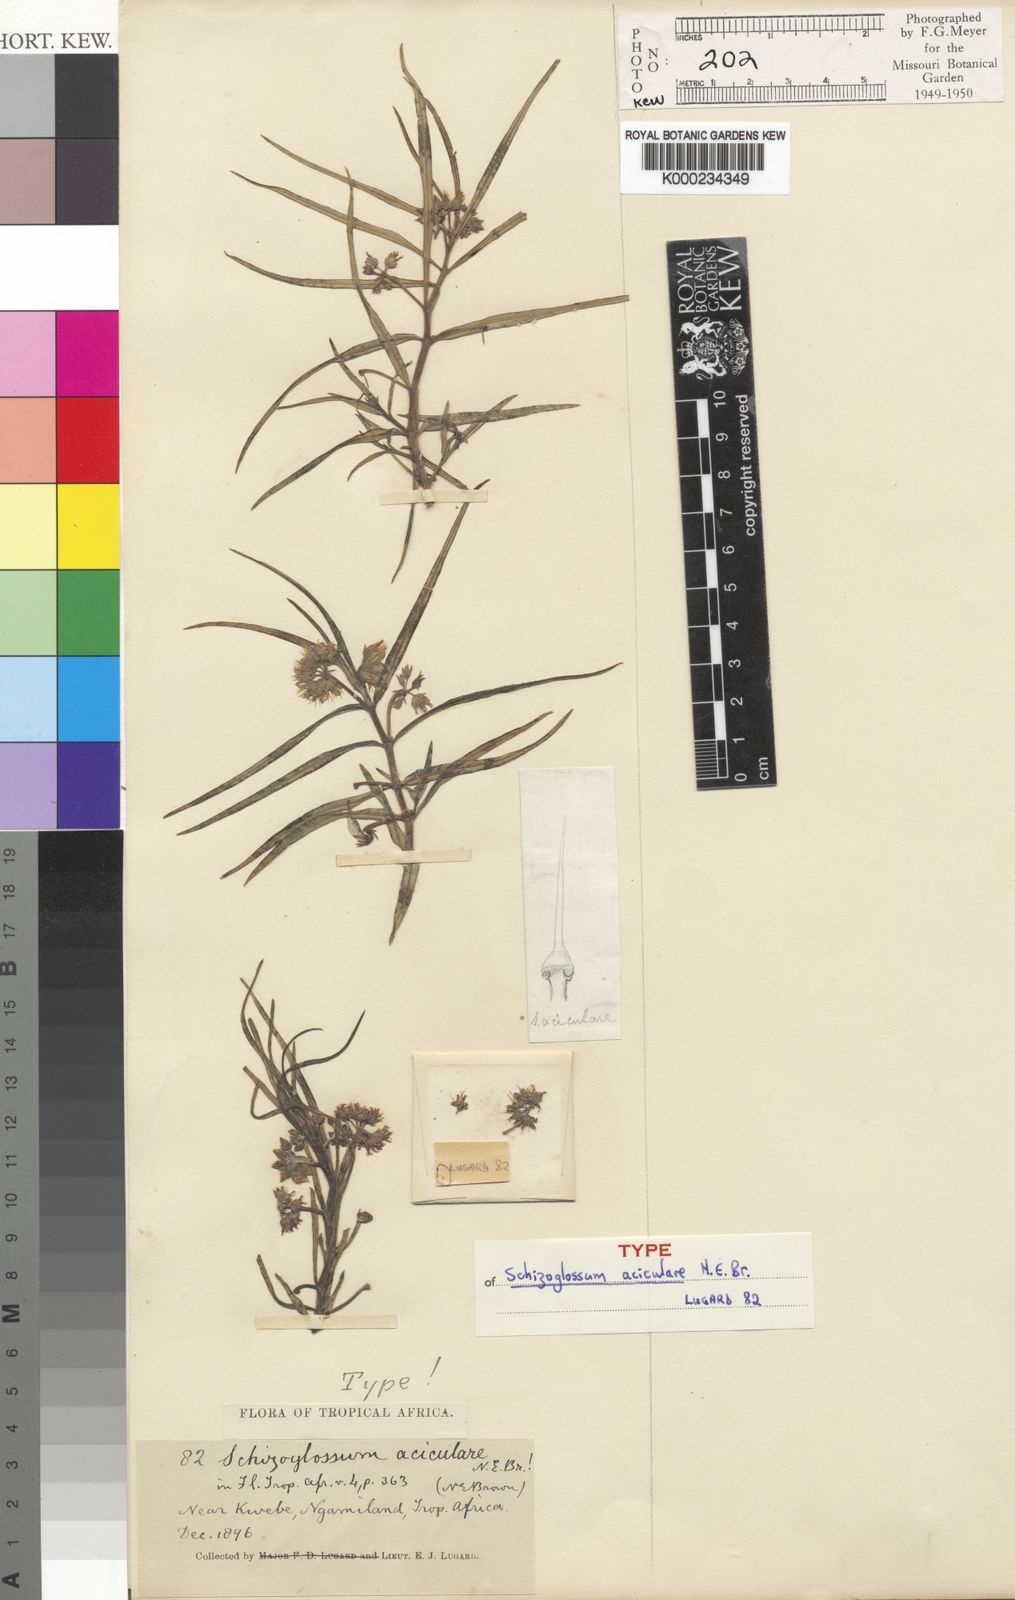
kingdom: Plantae
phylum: Tracheophyta
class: Magnoliopsida
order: Gentianales
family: Apocynaceae
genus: Stenostelma
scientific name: Stenostelma capense
